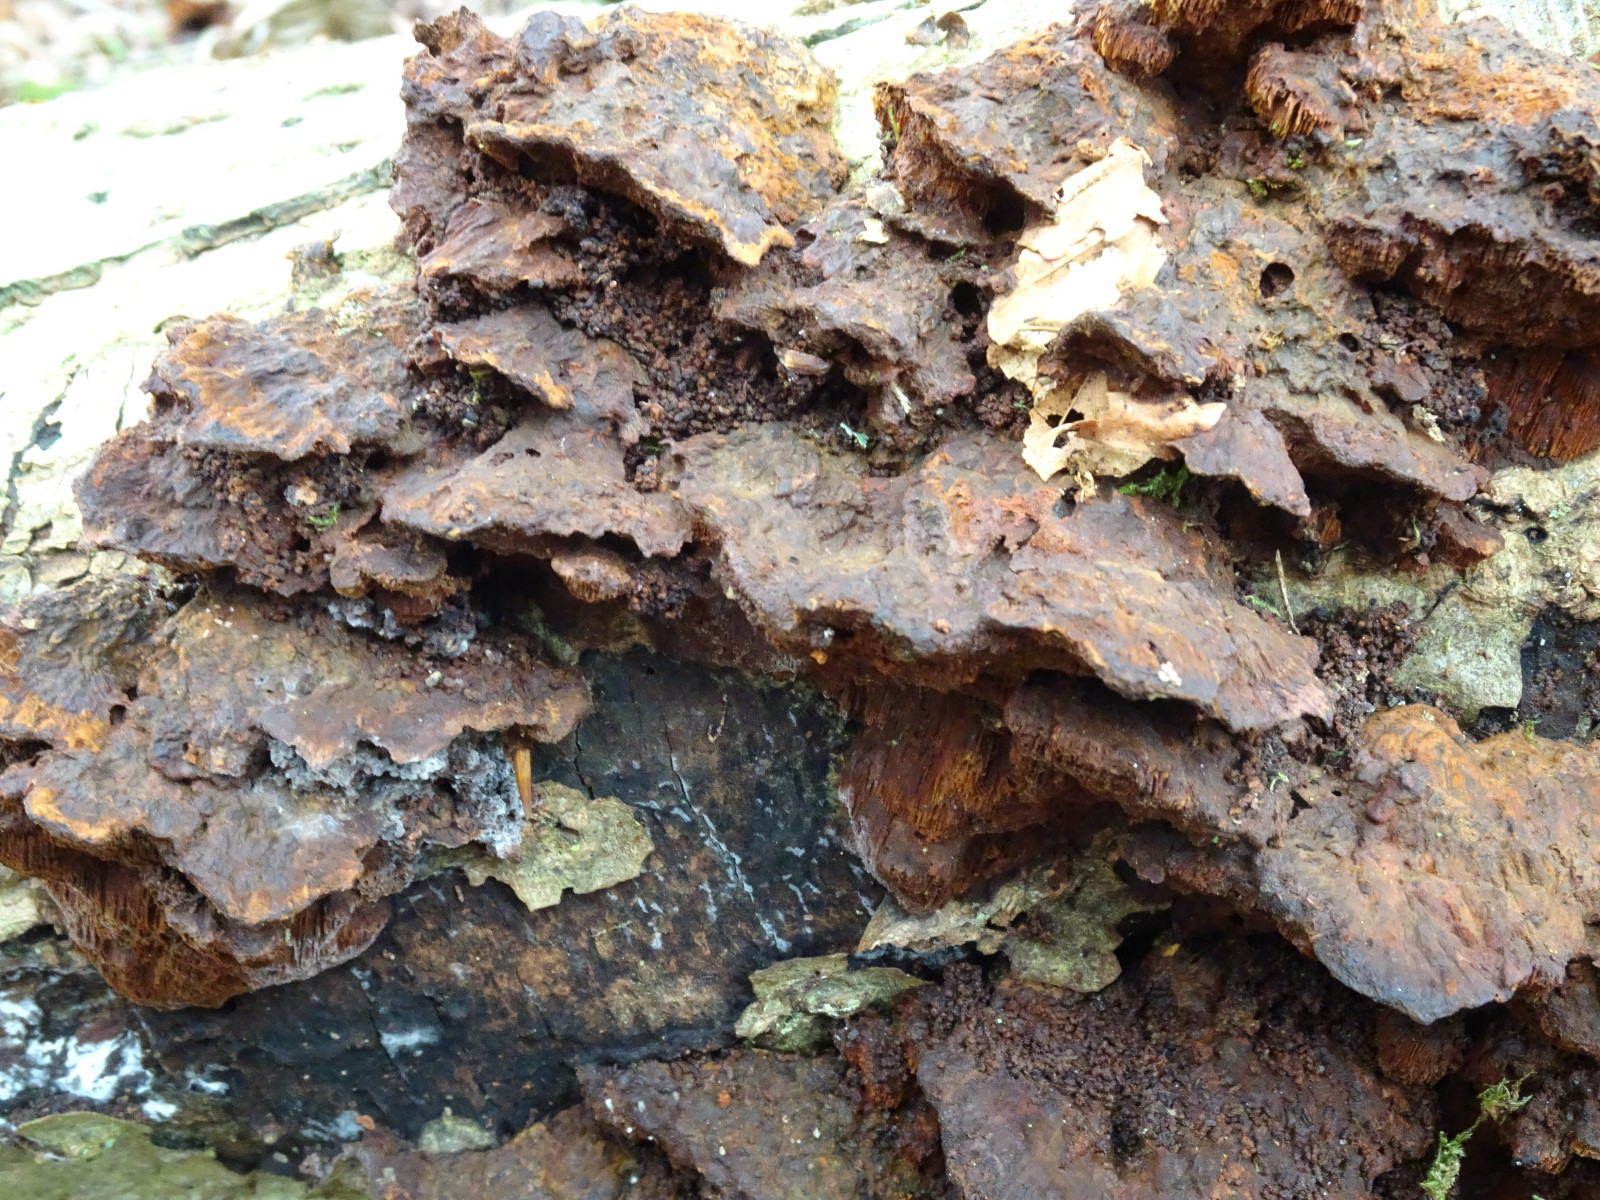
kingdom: Fungi
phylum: Basidiomycota
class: Agaricomycetes
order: Hymenochaetales
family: Hymenochaetaceae
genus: Xanthoporia
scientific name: Xanthoporia radiata
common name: elle-spejlporesvamp
